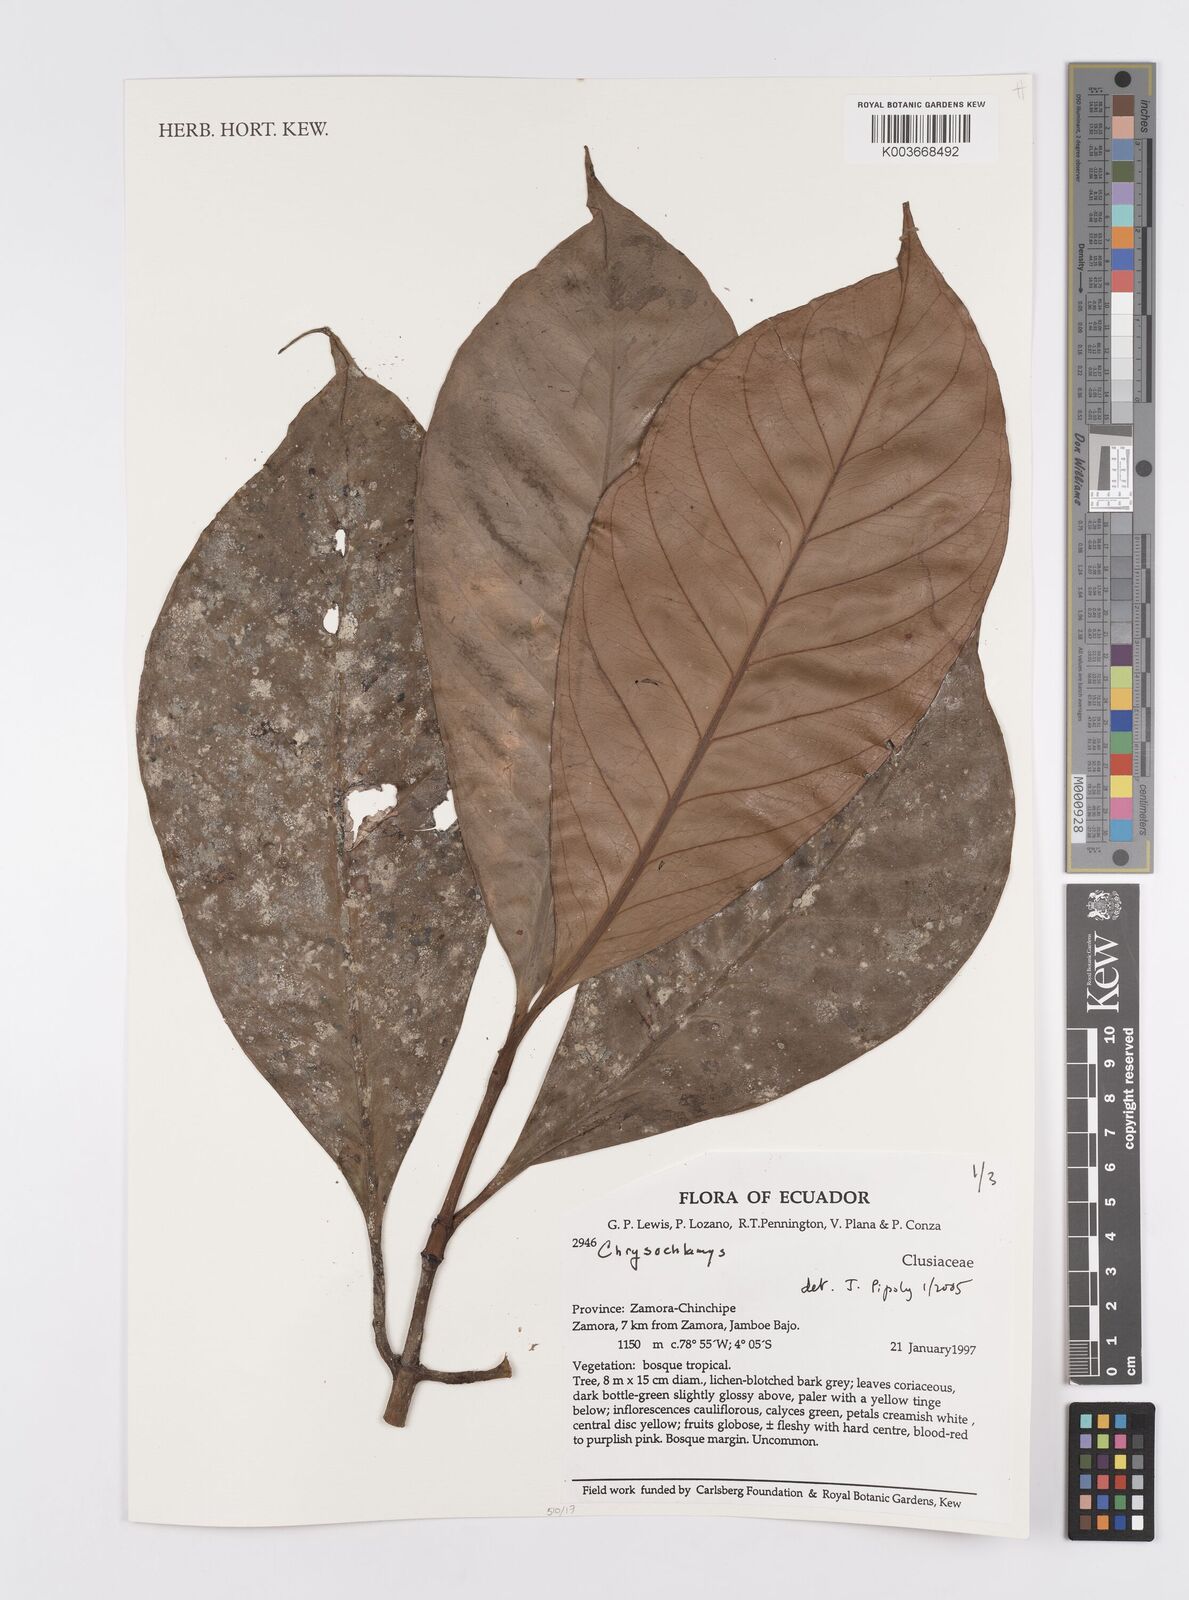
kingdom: Plantae
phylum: Tracheophyta
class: Magnoliopsida
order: Malpighiales
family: Clusiaceae
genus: Chrysochlamys
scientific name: Chrysochlamys
